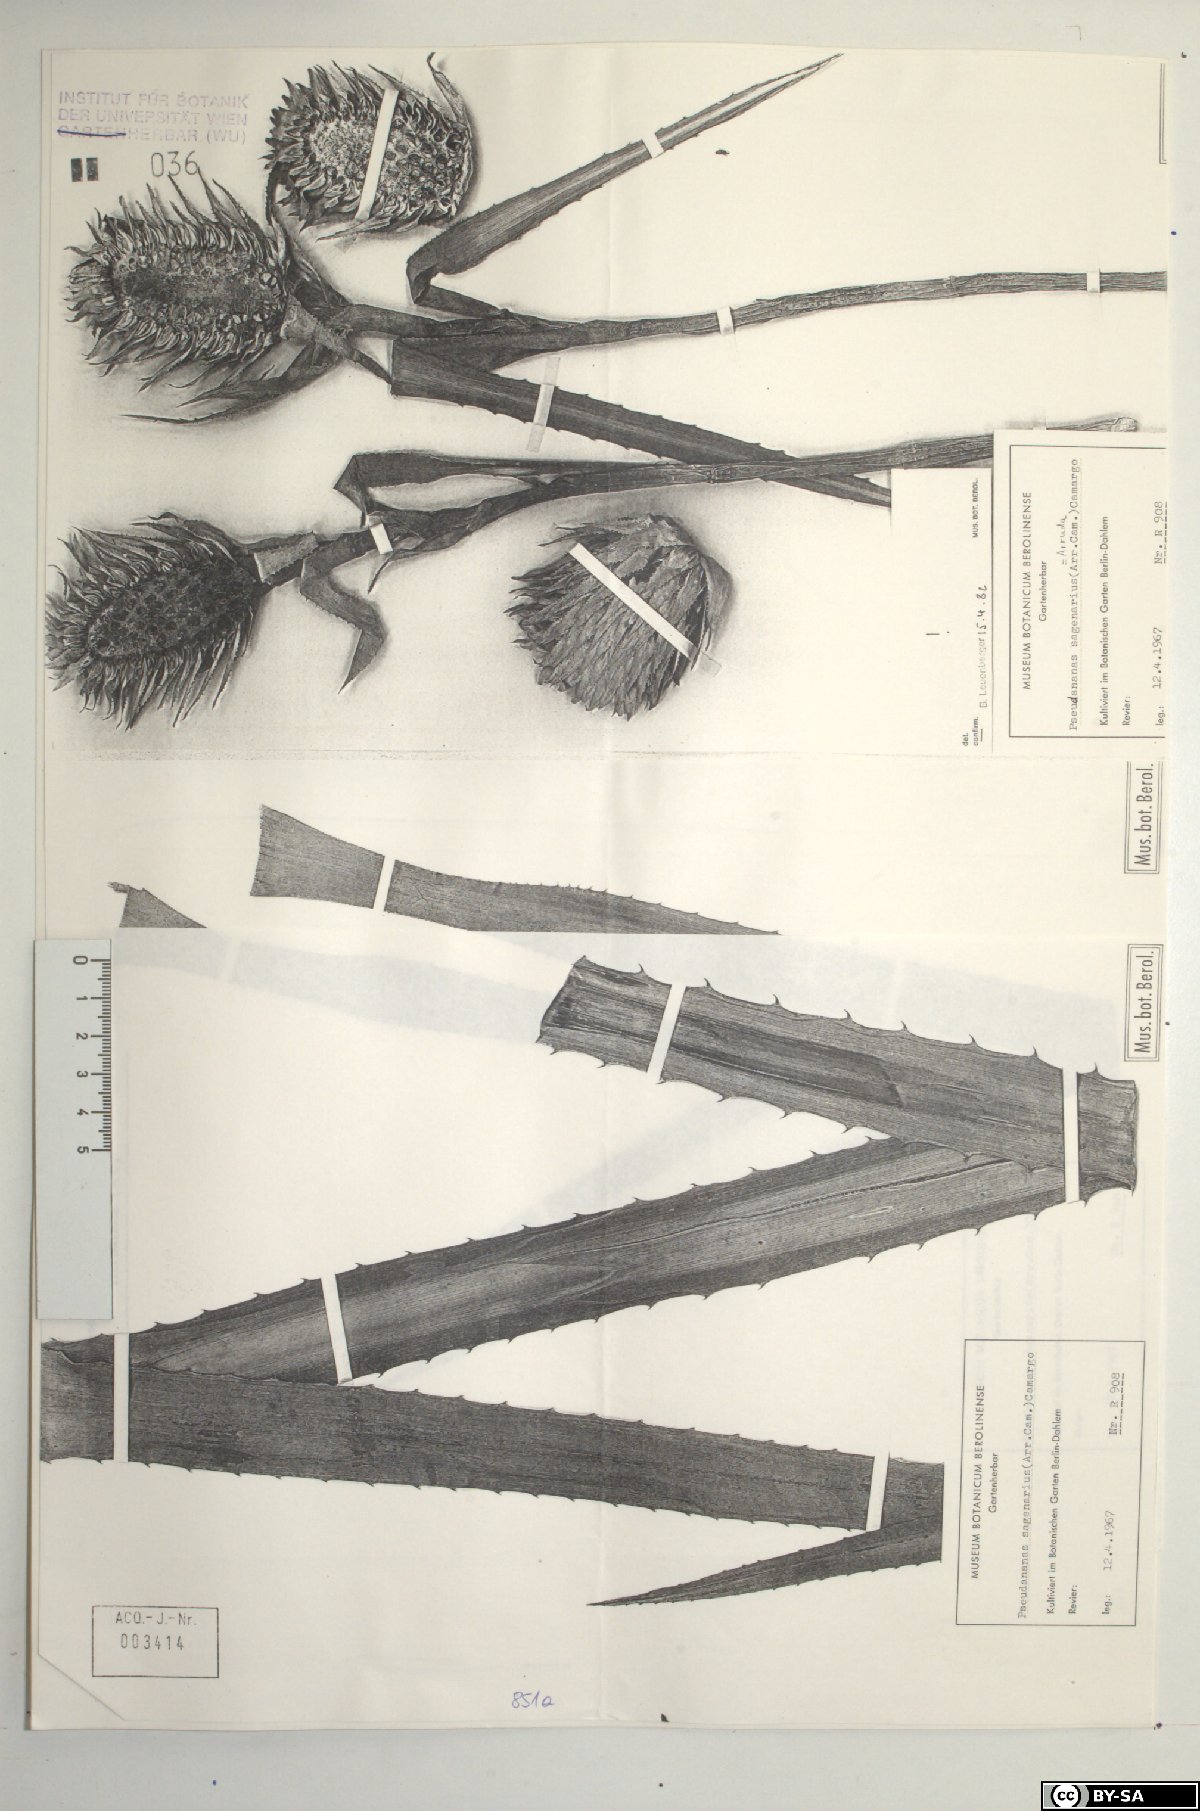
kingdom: Plantae
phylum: Tracheophyta
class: Liliopsida
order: Poales
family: Bromeliaceae
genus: Ananas
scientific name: Ananas comosus
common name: Pineapple
